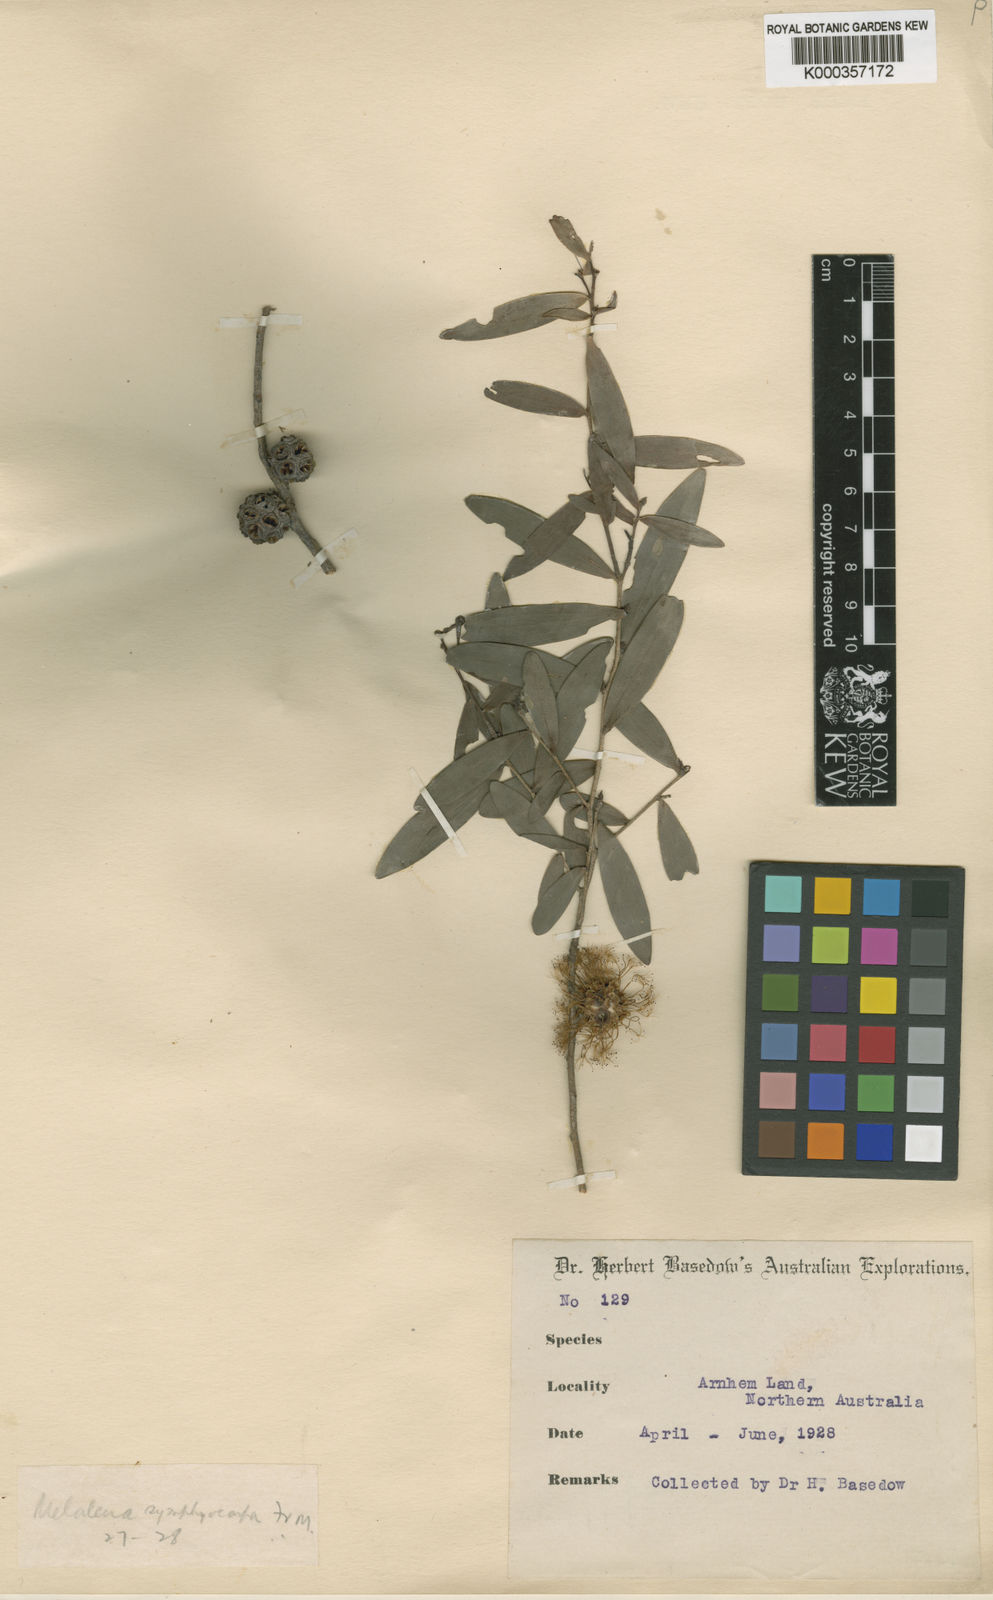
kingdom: Plantae
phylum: Tracheophyta
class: Magnoliopsida
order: Myrtales
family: Myrtaceae
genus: Asteromyrtus
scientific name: Asteromyrtus symphyocarpa
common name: Liniment-tree
